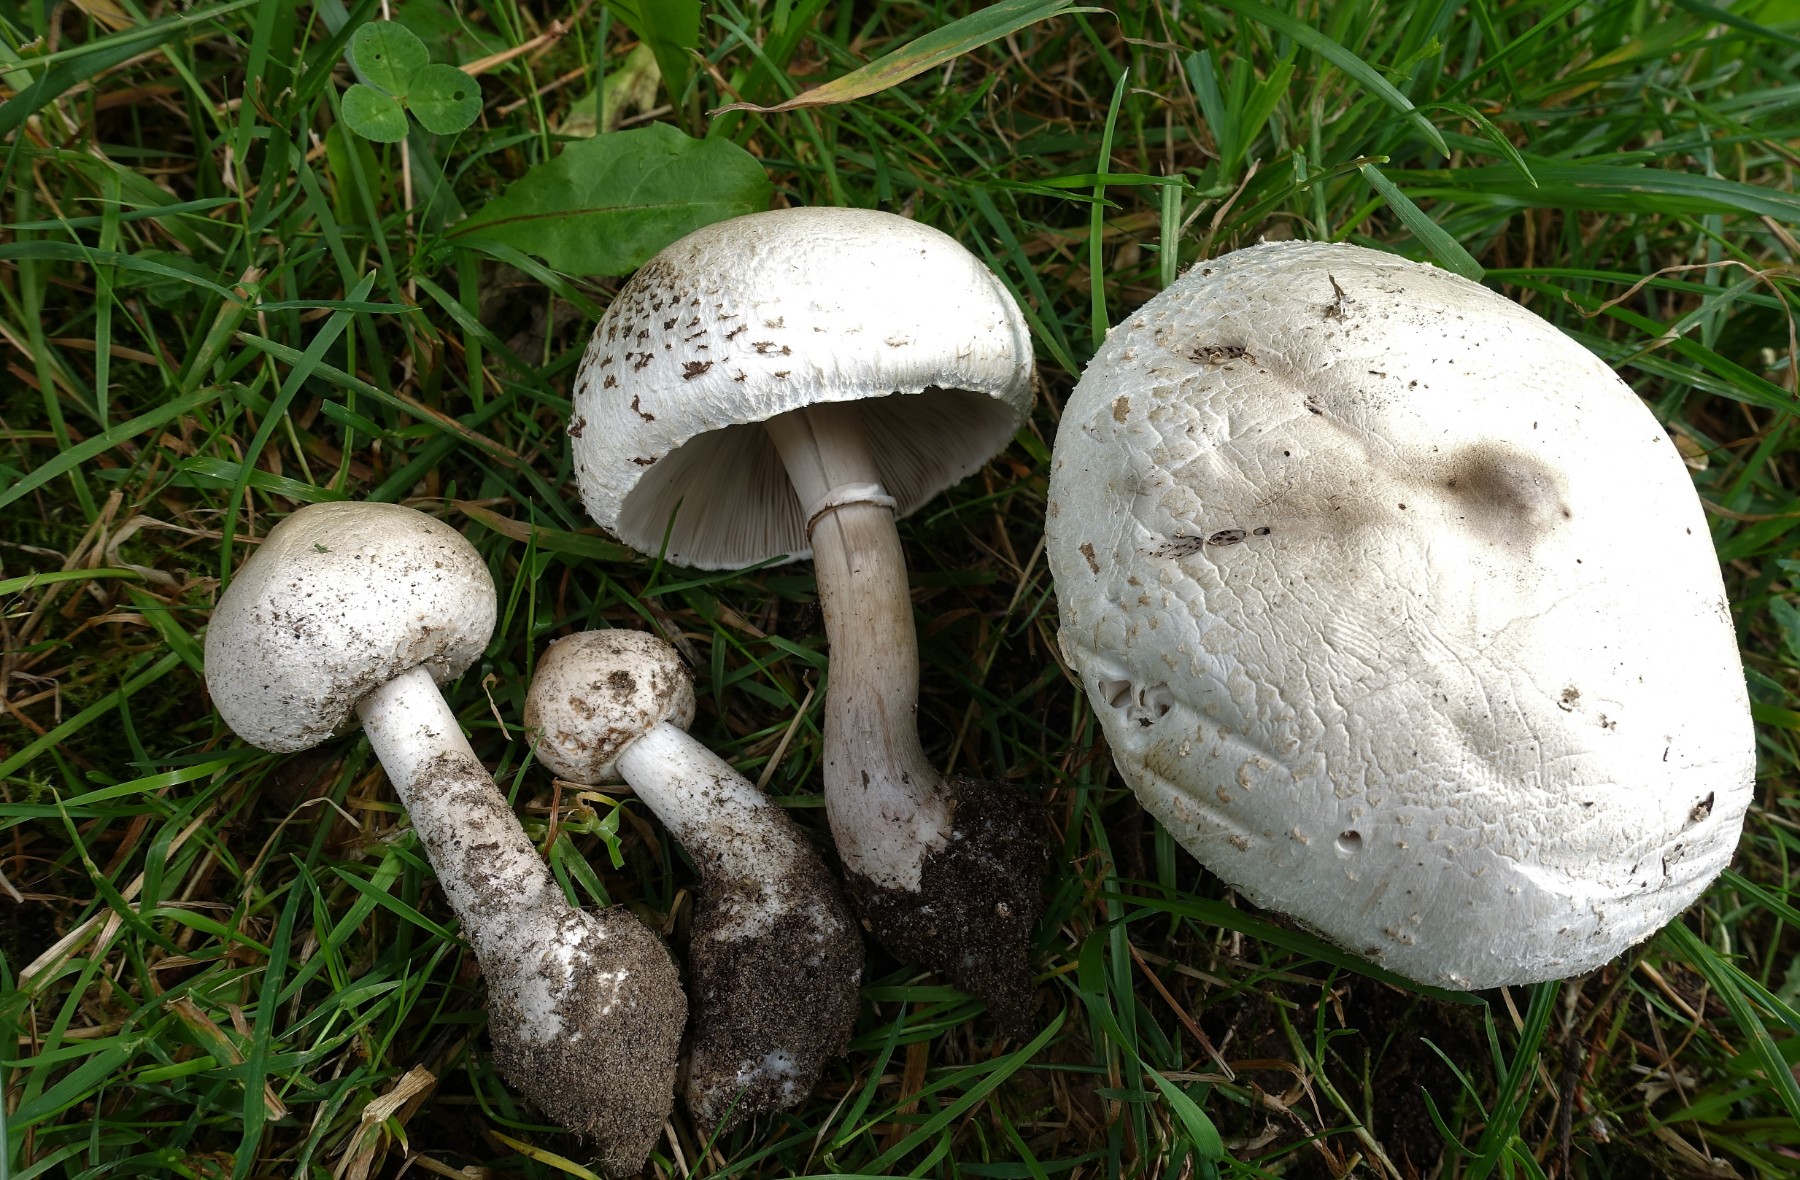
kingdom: Fungi
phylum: Basidiomycota
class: Agaricomycetes
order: Agaricales
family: Agaricaceae
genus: Macrolepiota
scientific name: Macrolepiota excoriata
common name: mark-kæmpeparasolhat
